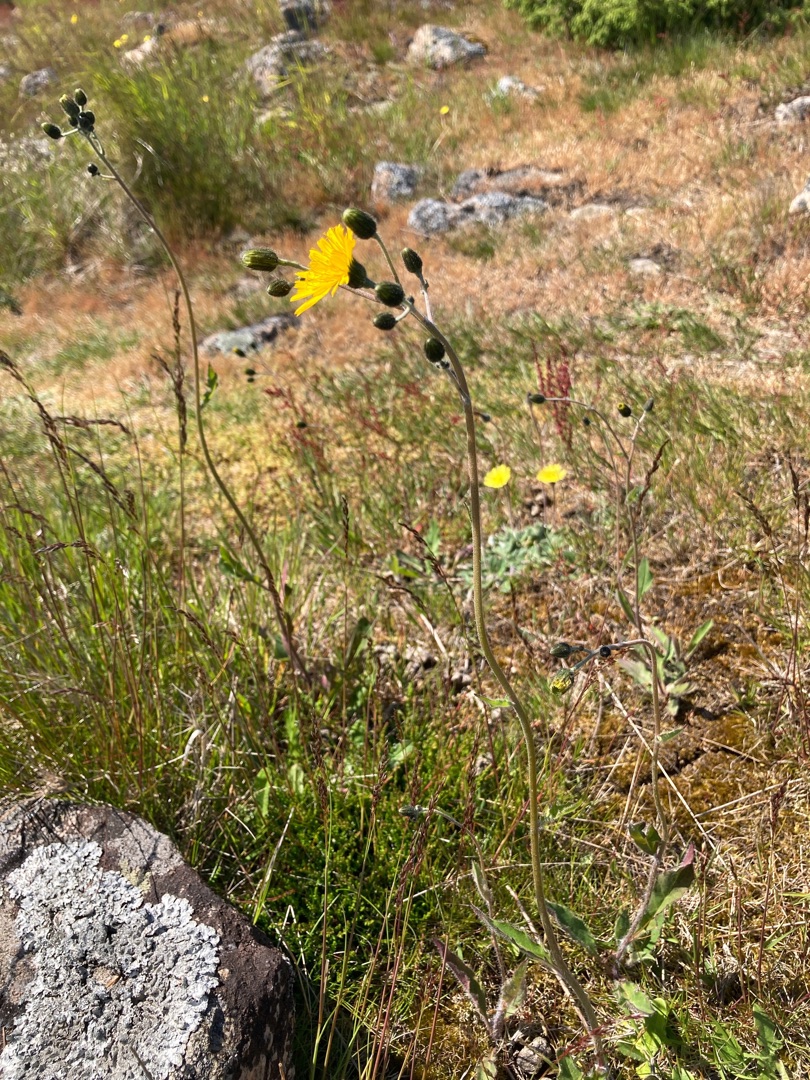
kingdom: Plantae
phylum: Tracheophyta
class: Magnoliopsida
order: Asterales
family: Asteraceae
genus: Hieracium
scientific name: Hieracium
